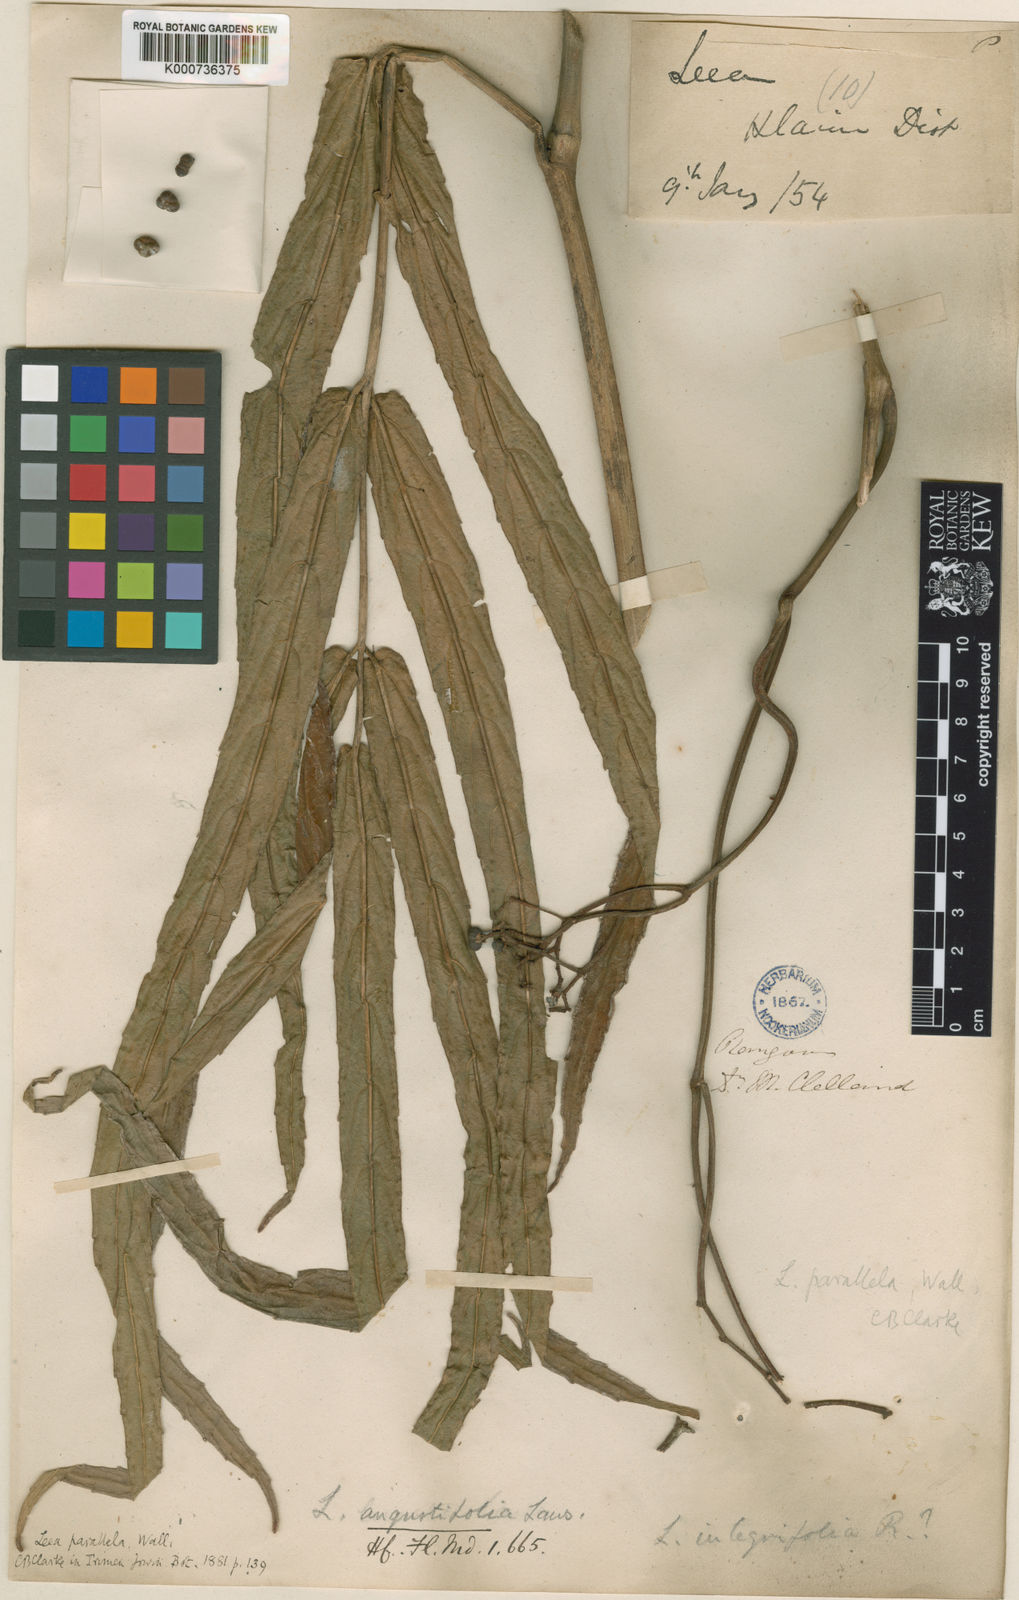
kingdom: Plantae
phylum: Tracheophyta
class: Magnoliopsida
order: Vitales
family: Vitaceae
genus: Leea
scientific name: Leea macrophylla
